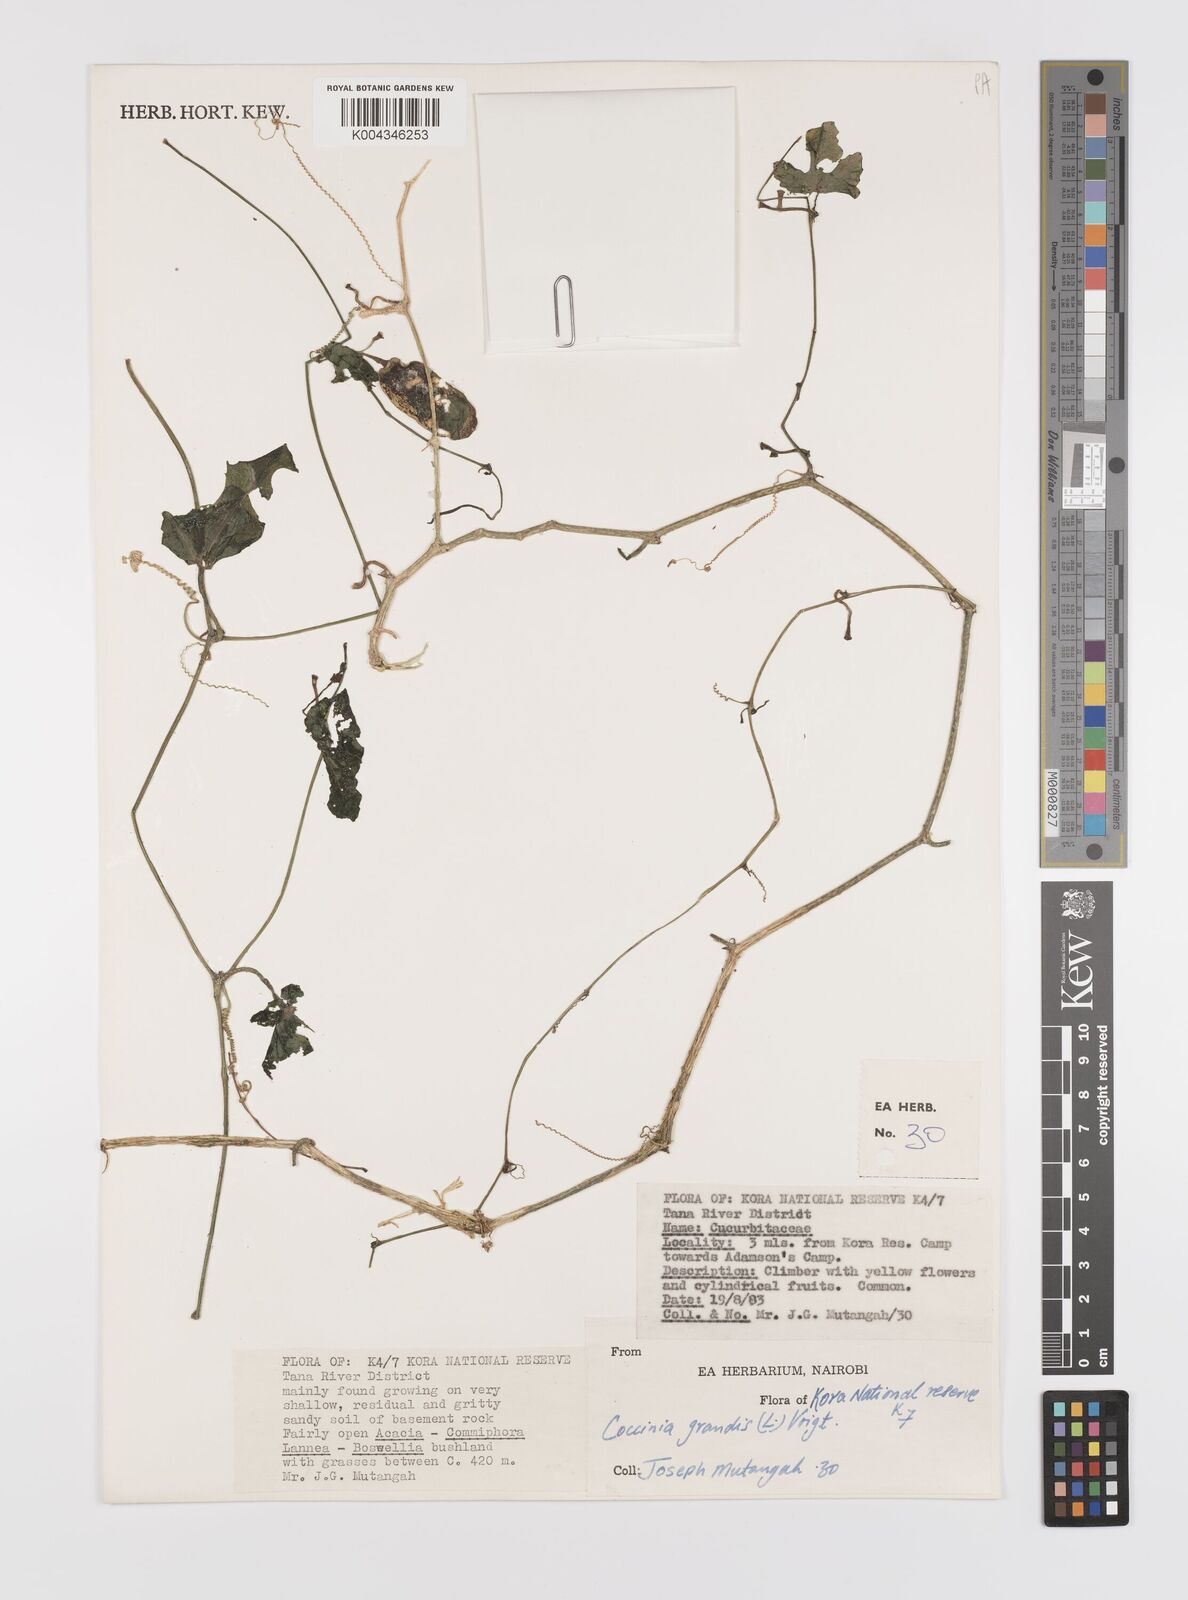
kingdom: Plantae
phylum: Tracheophyta
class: Magnoliopsida
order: Cucurbitales
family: Cucurbitaceae
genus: Coccinia
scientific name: Coccinia grandis
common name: Ivy gourd
